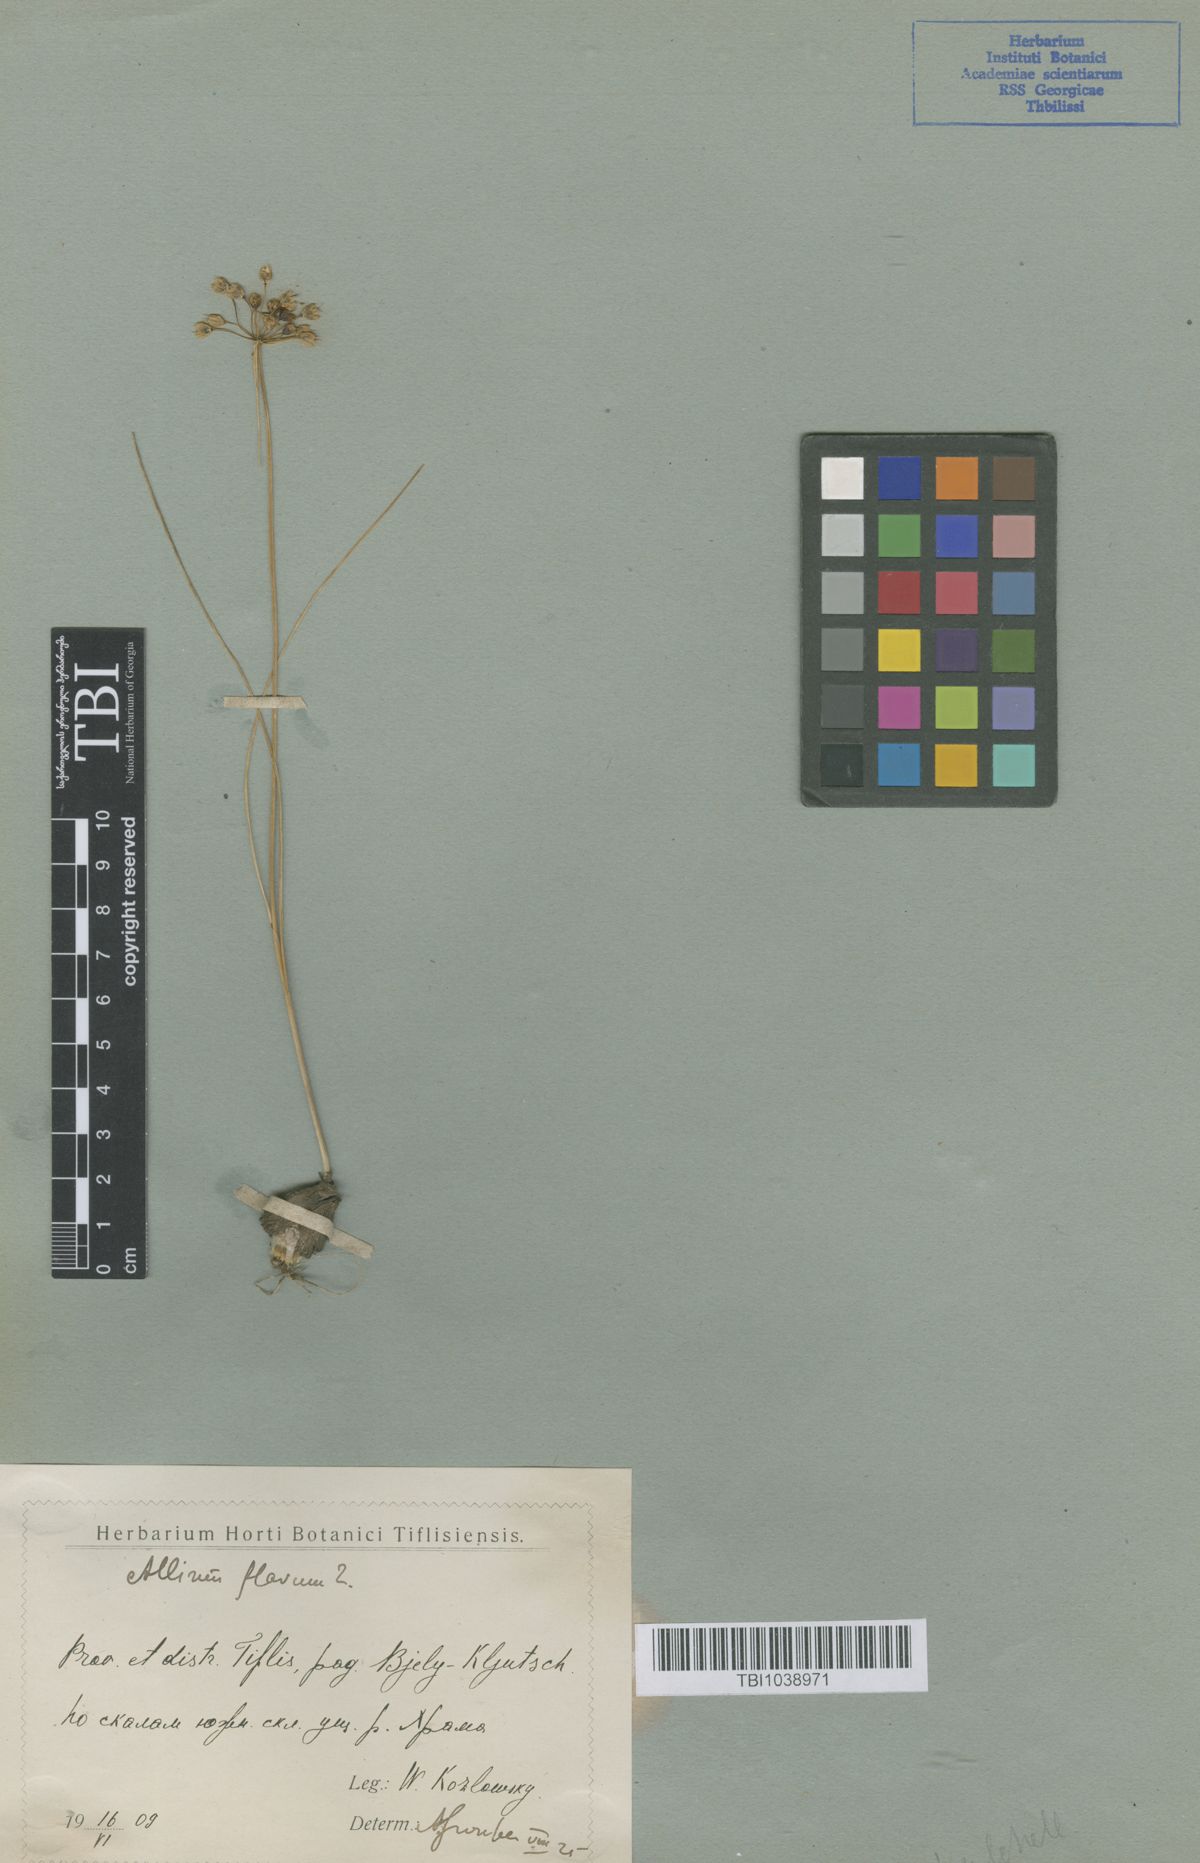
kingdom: Plantae
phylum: Tracheophyta
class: Liliopsida
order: Asparagales
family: Amaryllidaceae
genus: Allium
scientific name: Allium pseudoflavum
